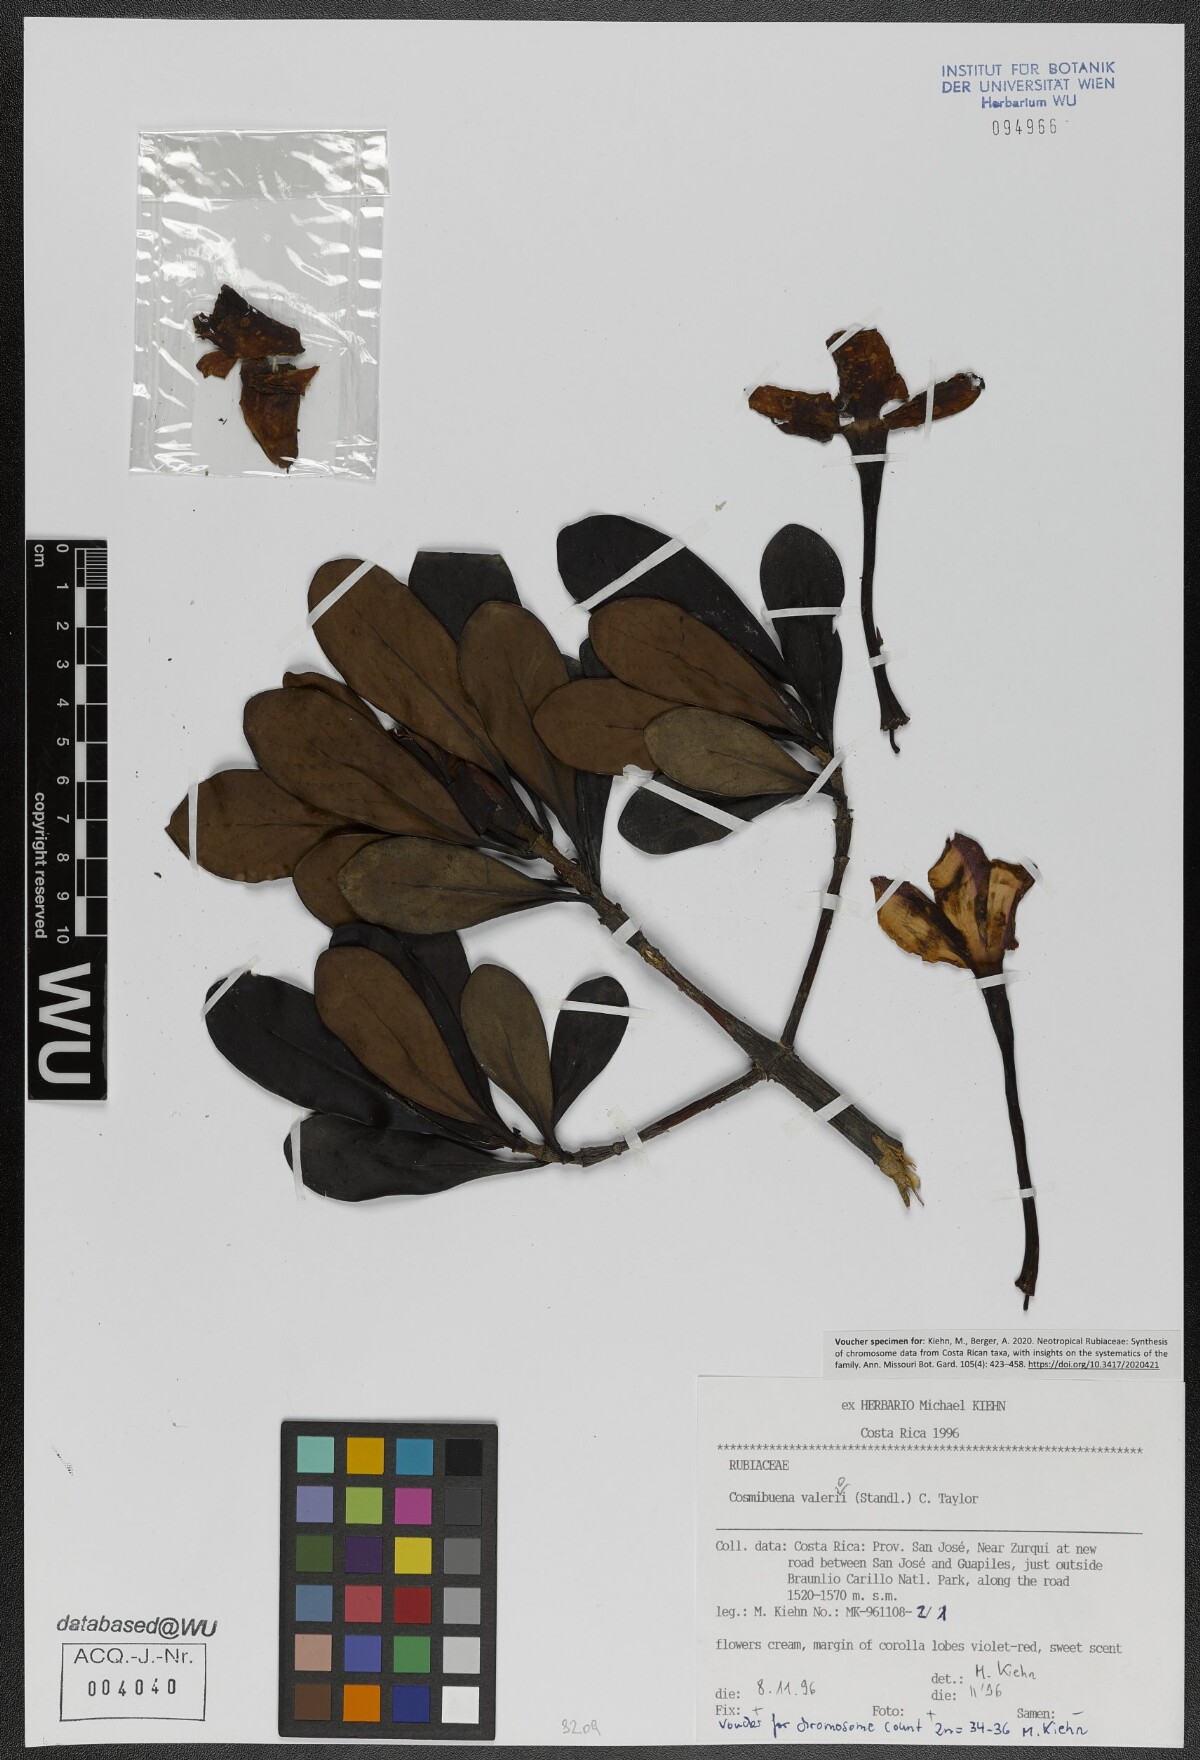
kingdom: Plantae
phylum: Tracheophyta
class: Magnoliopsida
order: Gentianales
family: Rubiaceae
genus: Cosmibuena
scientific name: Cosmibuena valerii
